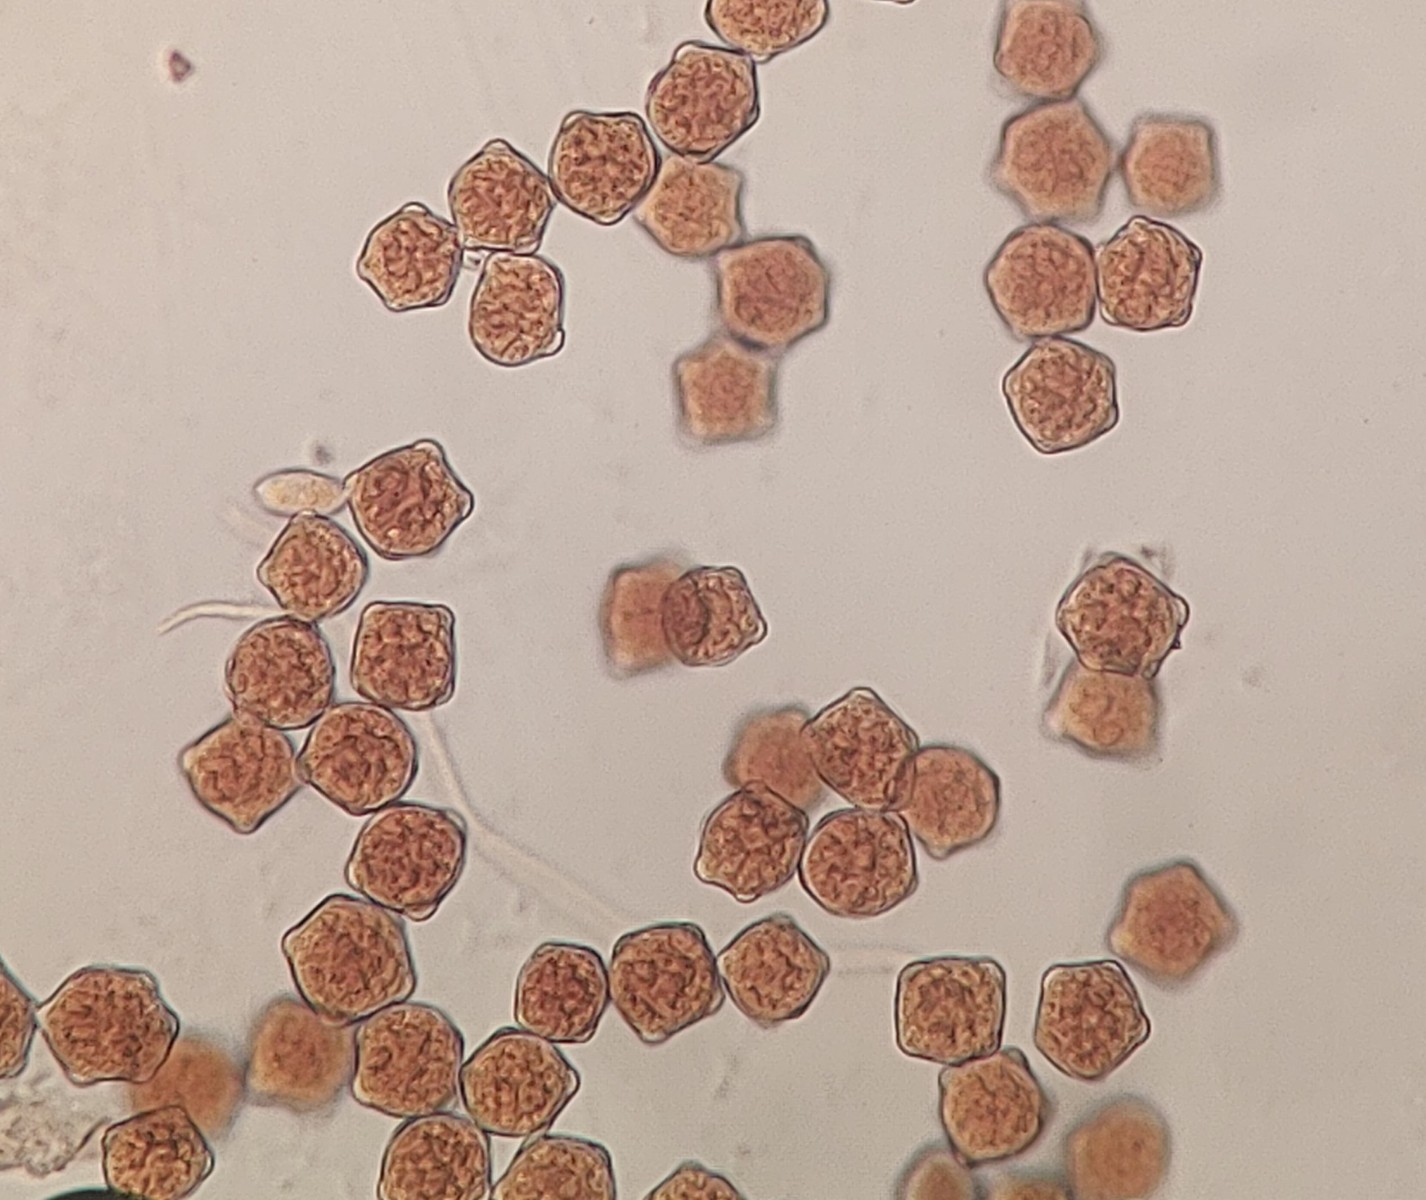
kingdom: Fungi
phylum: Basidiomycota
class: Pucciniomycetes
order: Pucciniales
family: Phragmidiaceae
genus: Phragmidium
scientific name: Phragmidium mucronatum
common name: rose-flercellerust
